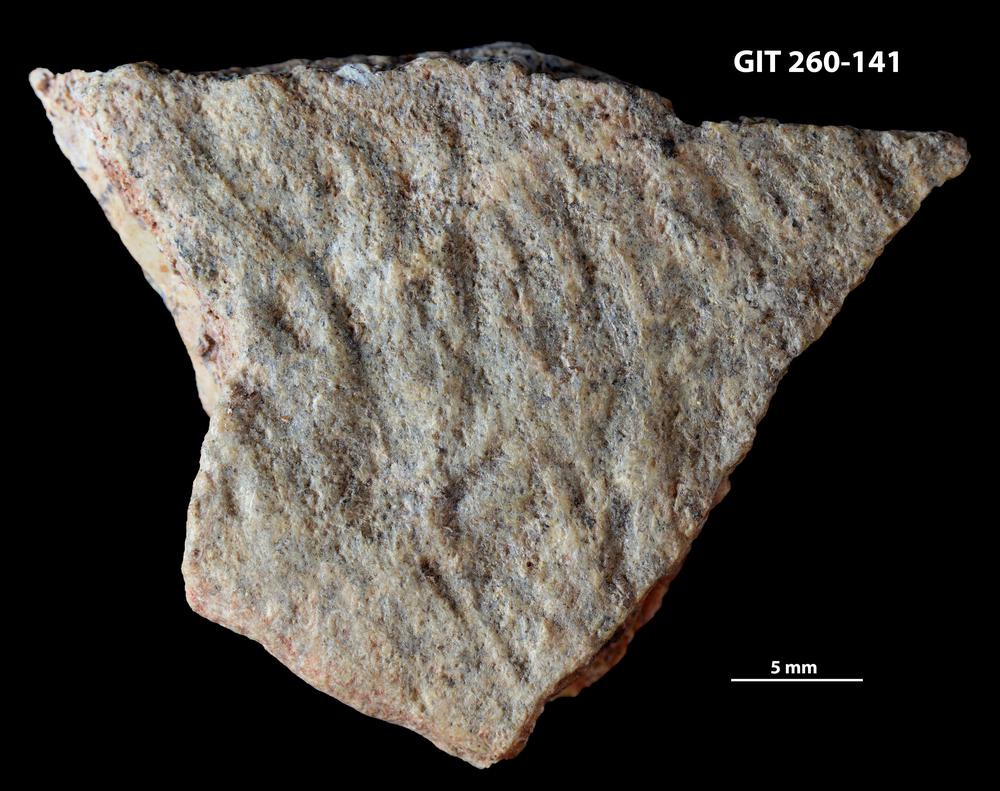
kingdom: Animalia
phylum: Chordata
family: Homostiidae
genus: Homostius
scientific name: Homostius
